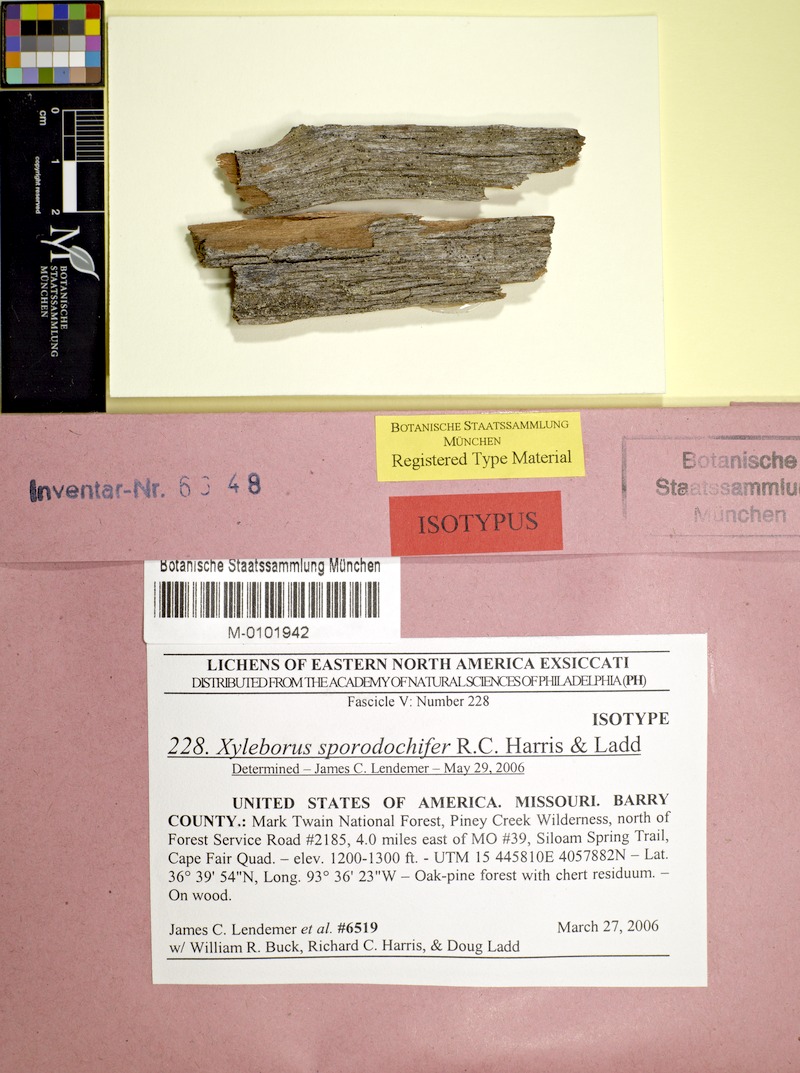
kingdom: Fungi
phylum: Ascomycota
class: Lecanoromycetes
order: Lecanorales
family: Stereocaulaceae
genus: Xyleborus
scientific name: Xyleborus sporodochifer
